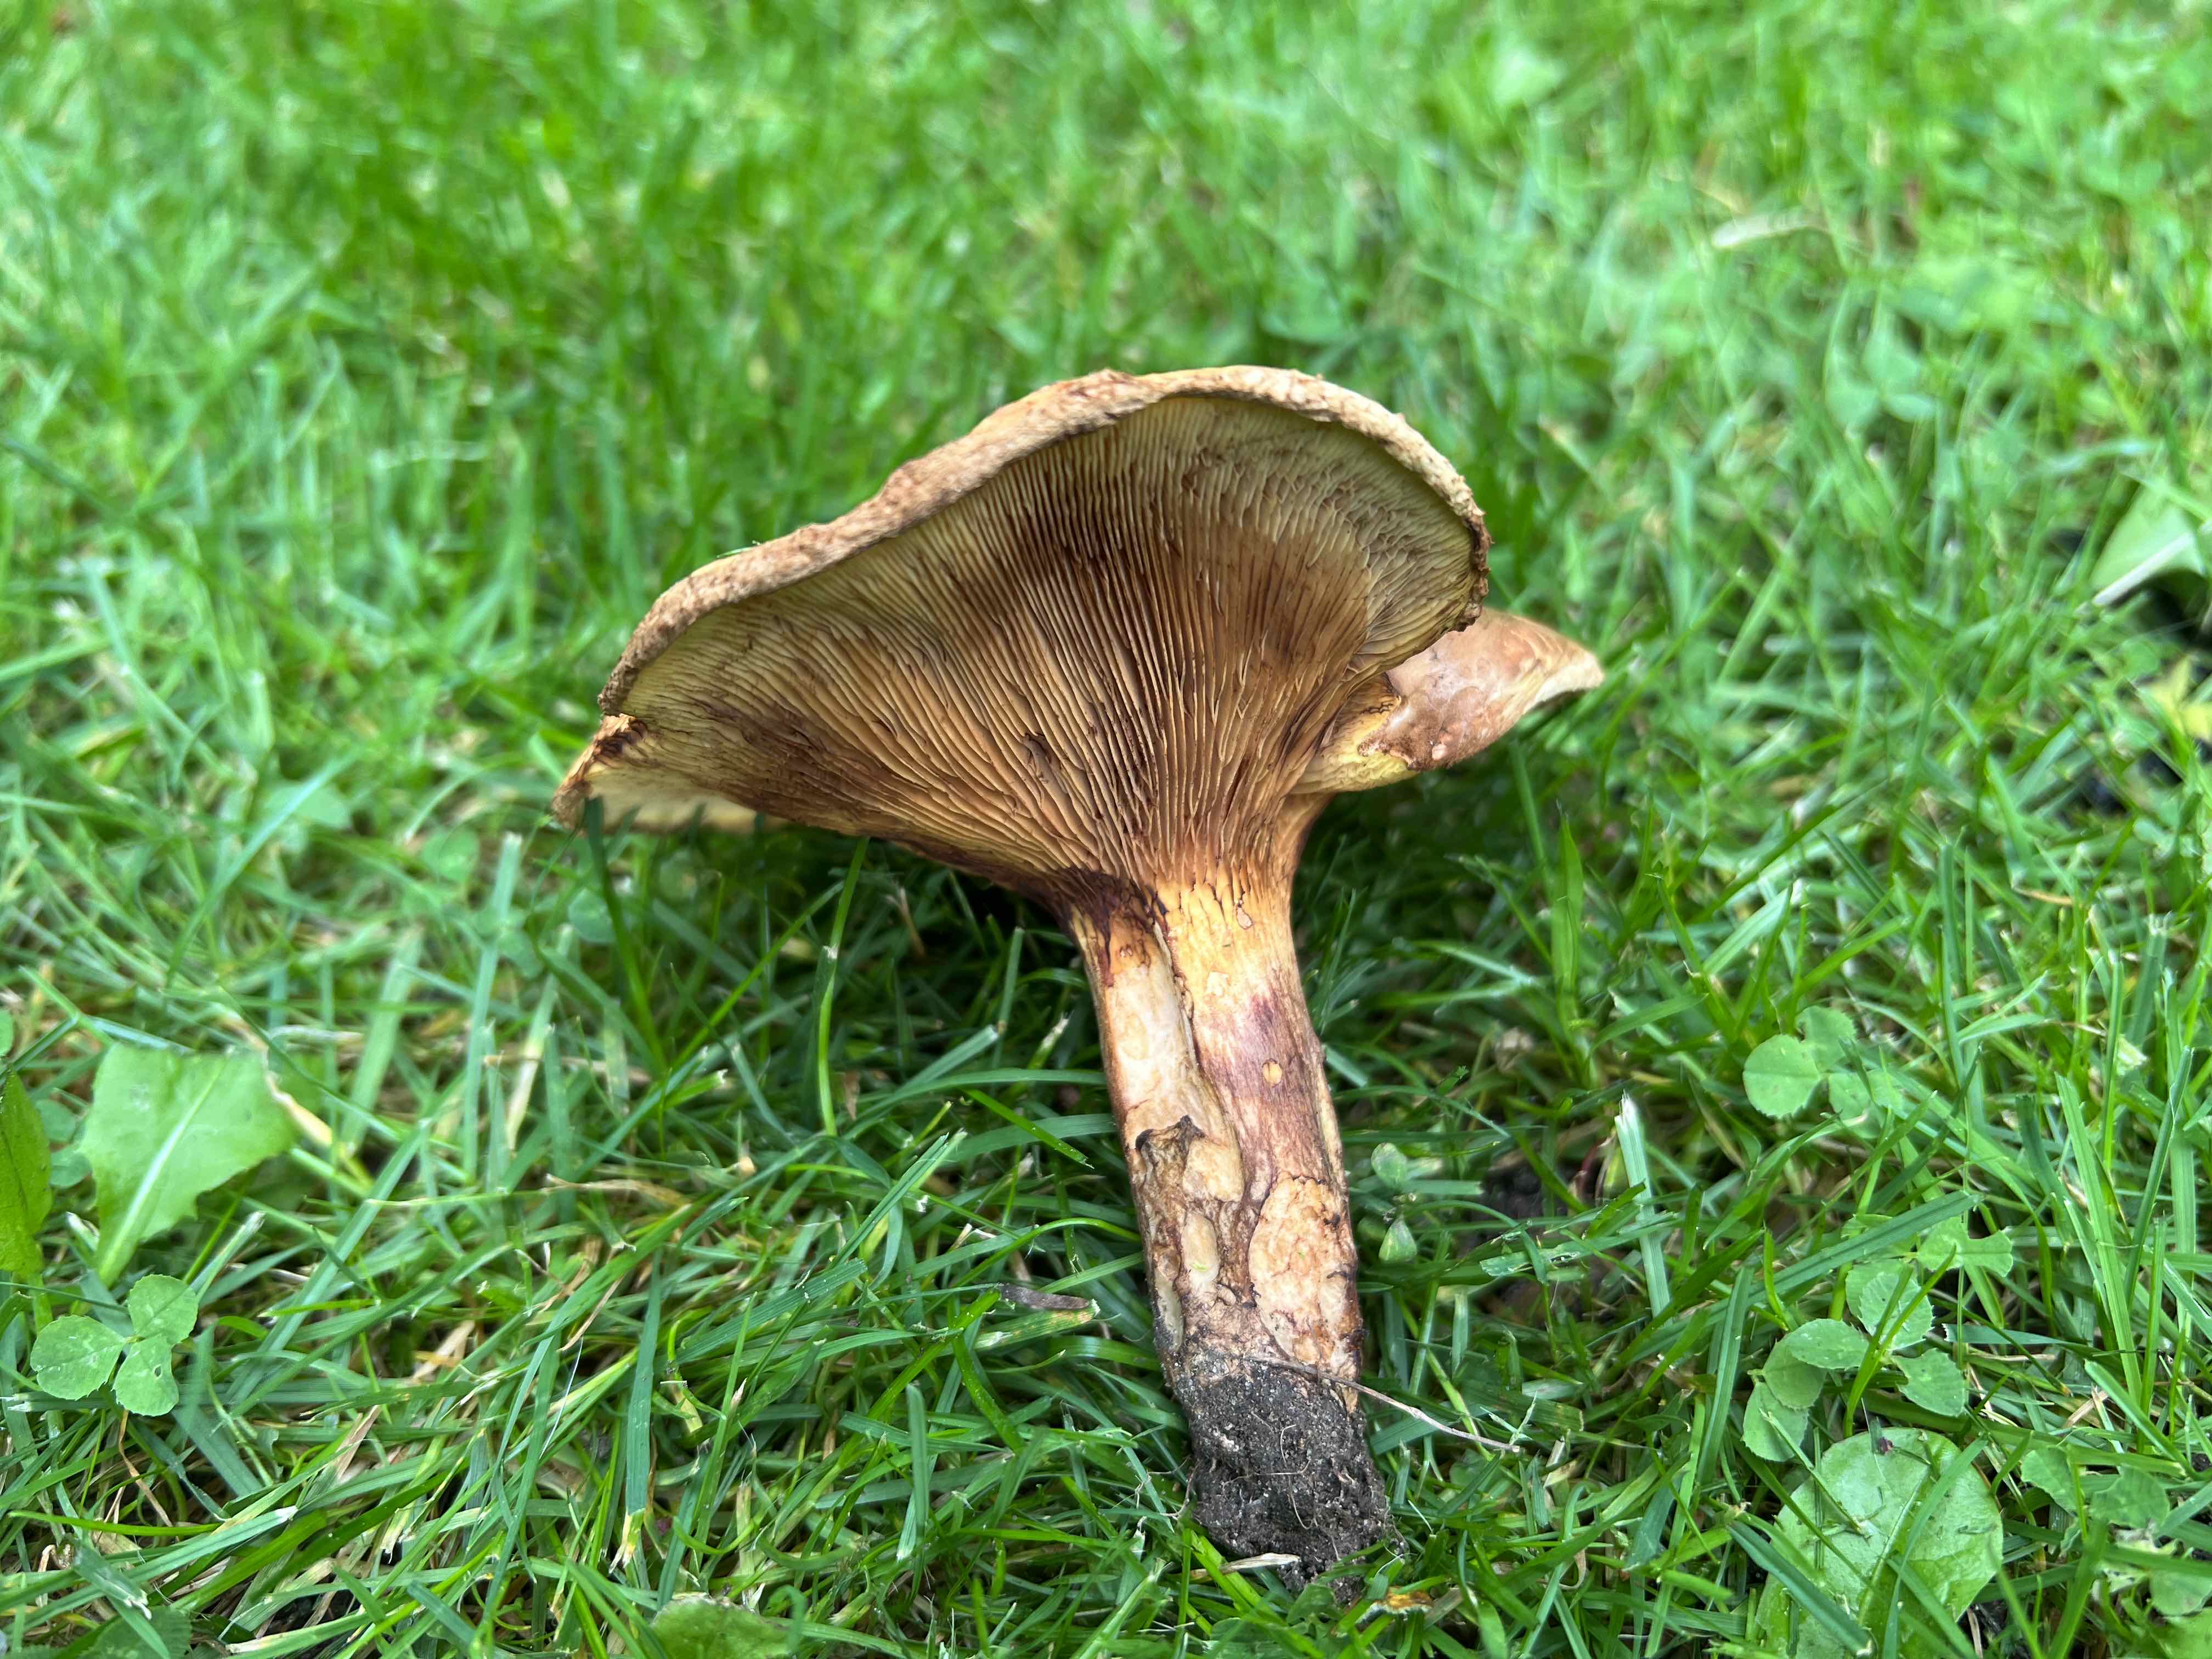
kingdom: Fungi
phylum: Basidiomycota
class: Agaricomycetes
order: Boletales
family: Paxillaceae
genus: Paxillus
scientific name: Paxillus
